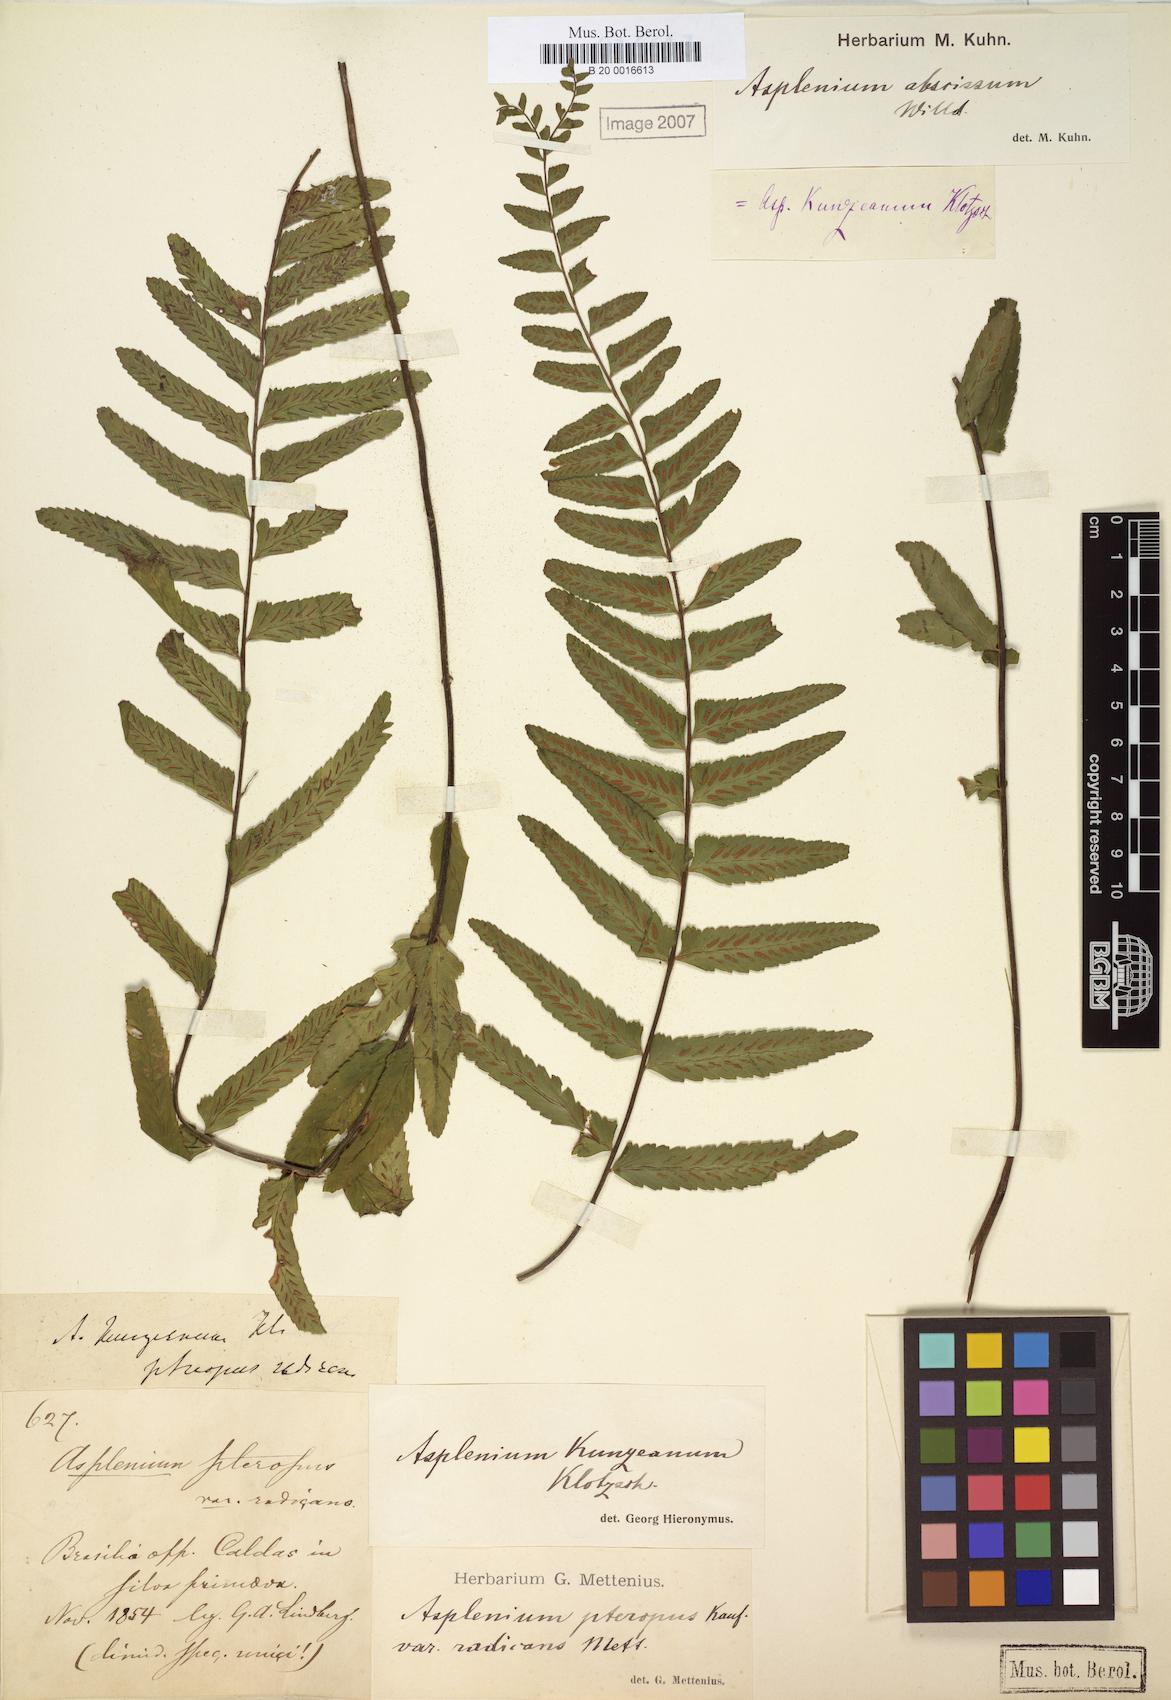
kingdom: Plantae
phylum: Tracheophyta
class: Polypodiopsida
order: Polypodiales
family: Aspleniaceae
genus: Asplenium
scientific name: Asplenium kunzeanum
